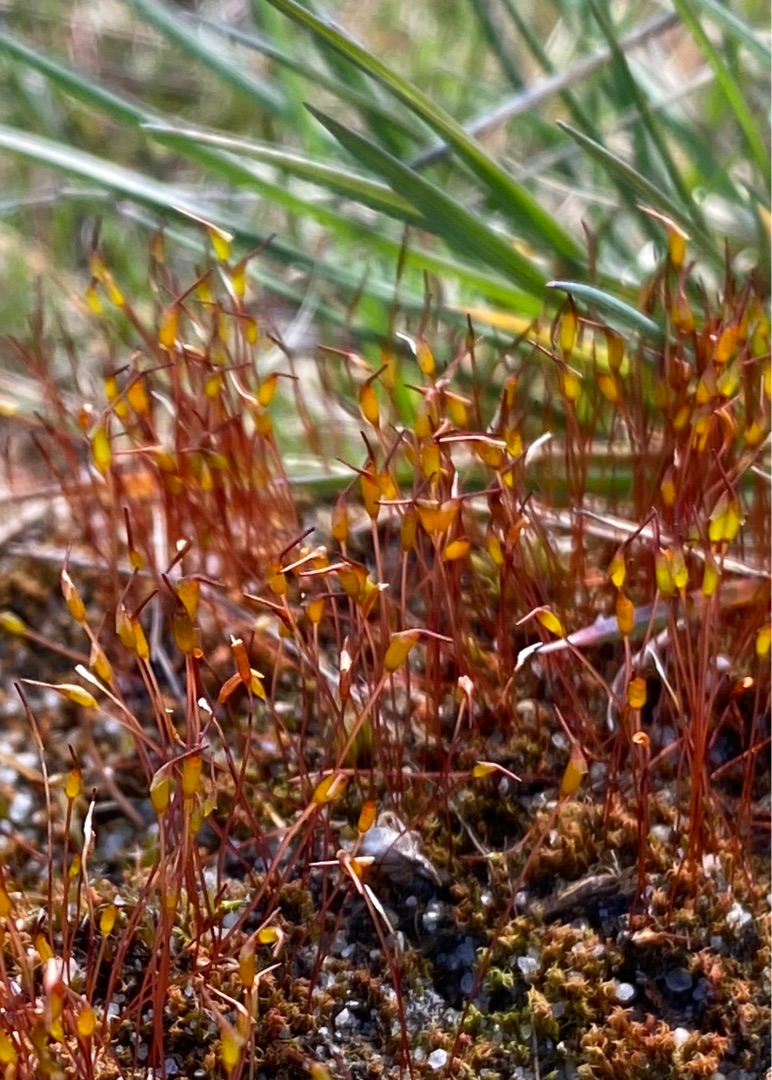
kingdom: Plantae
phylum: Bryophyta
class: Bryopsida
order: Dicranales
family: Ditrichaceae
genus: Ceratodon
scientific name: Ceratodon purpureus
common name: Rød horntand
